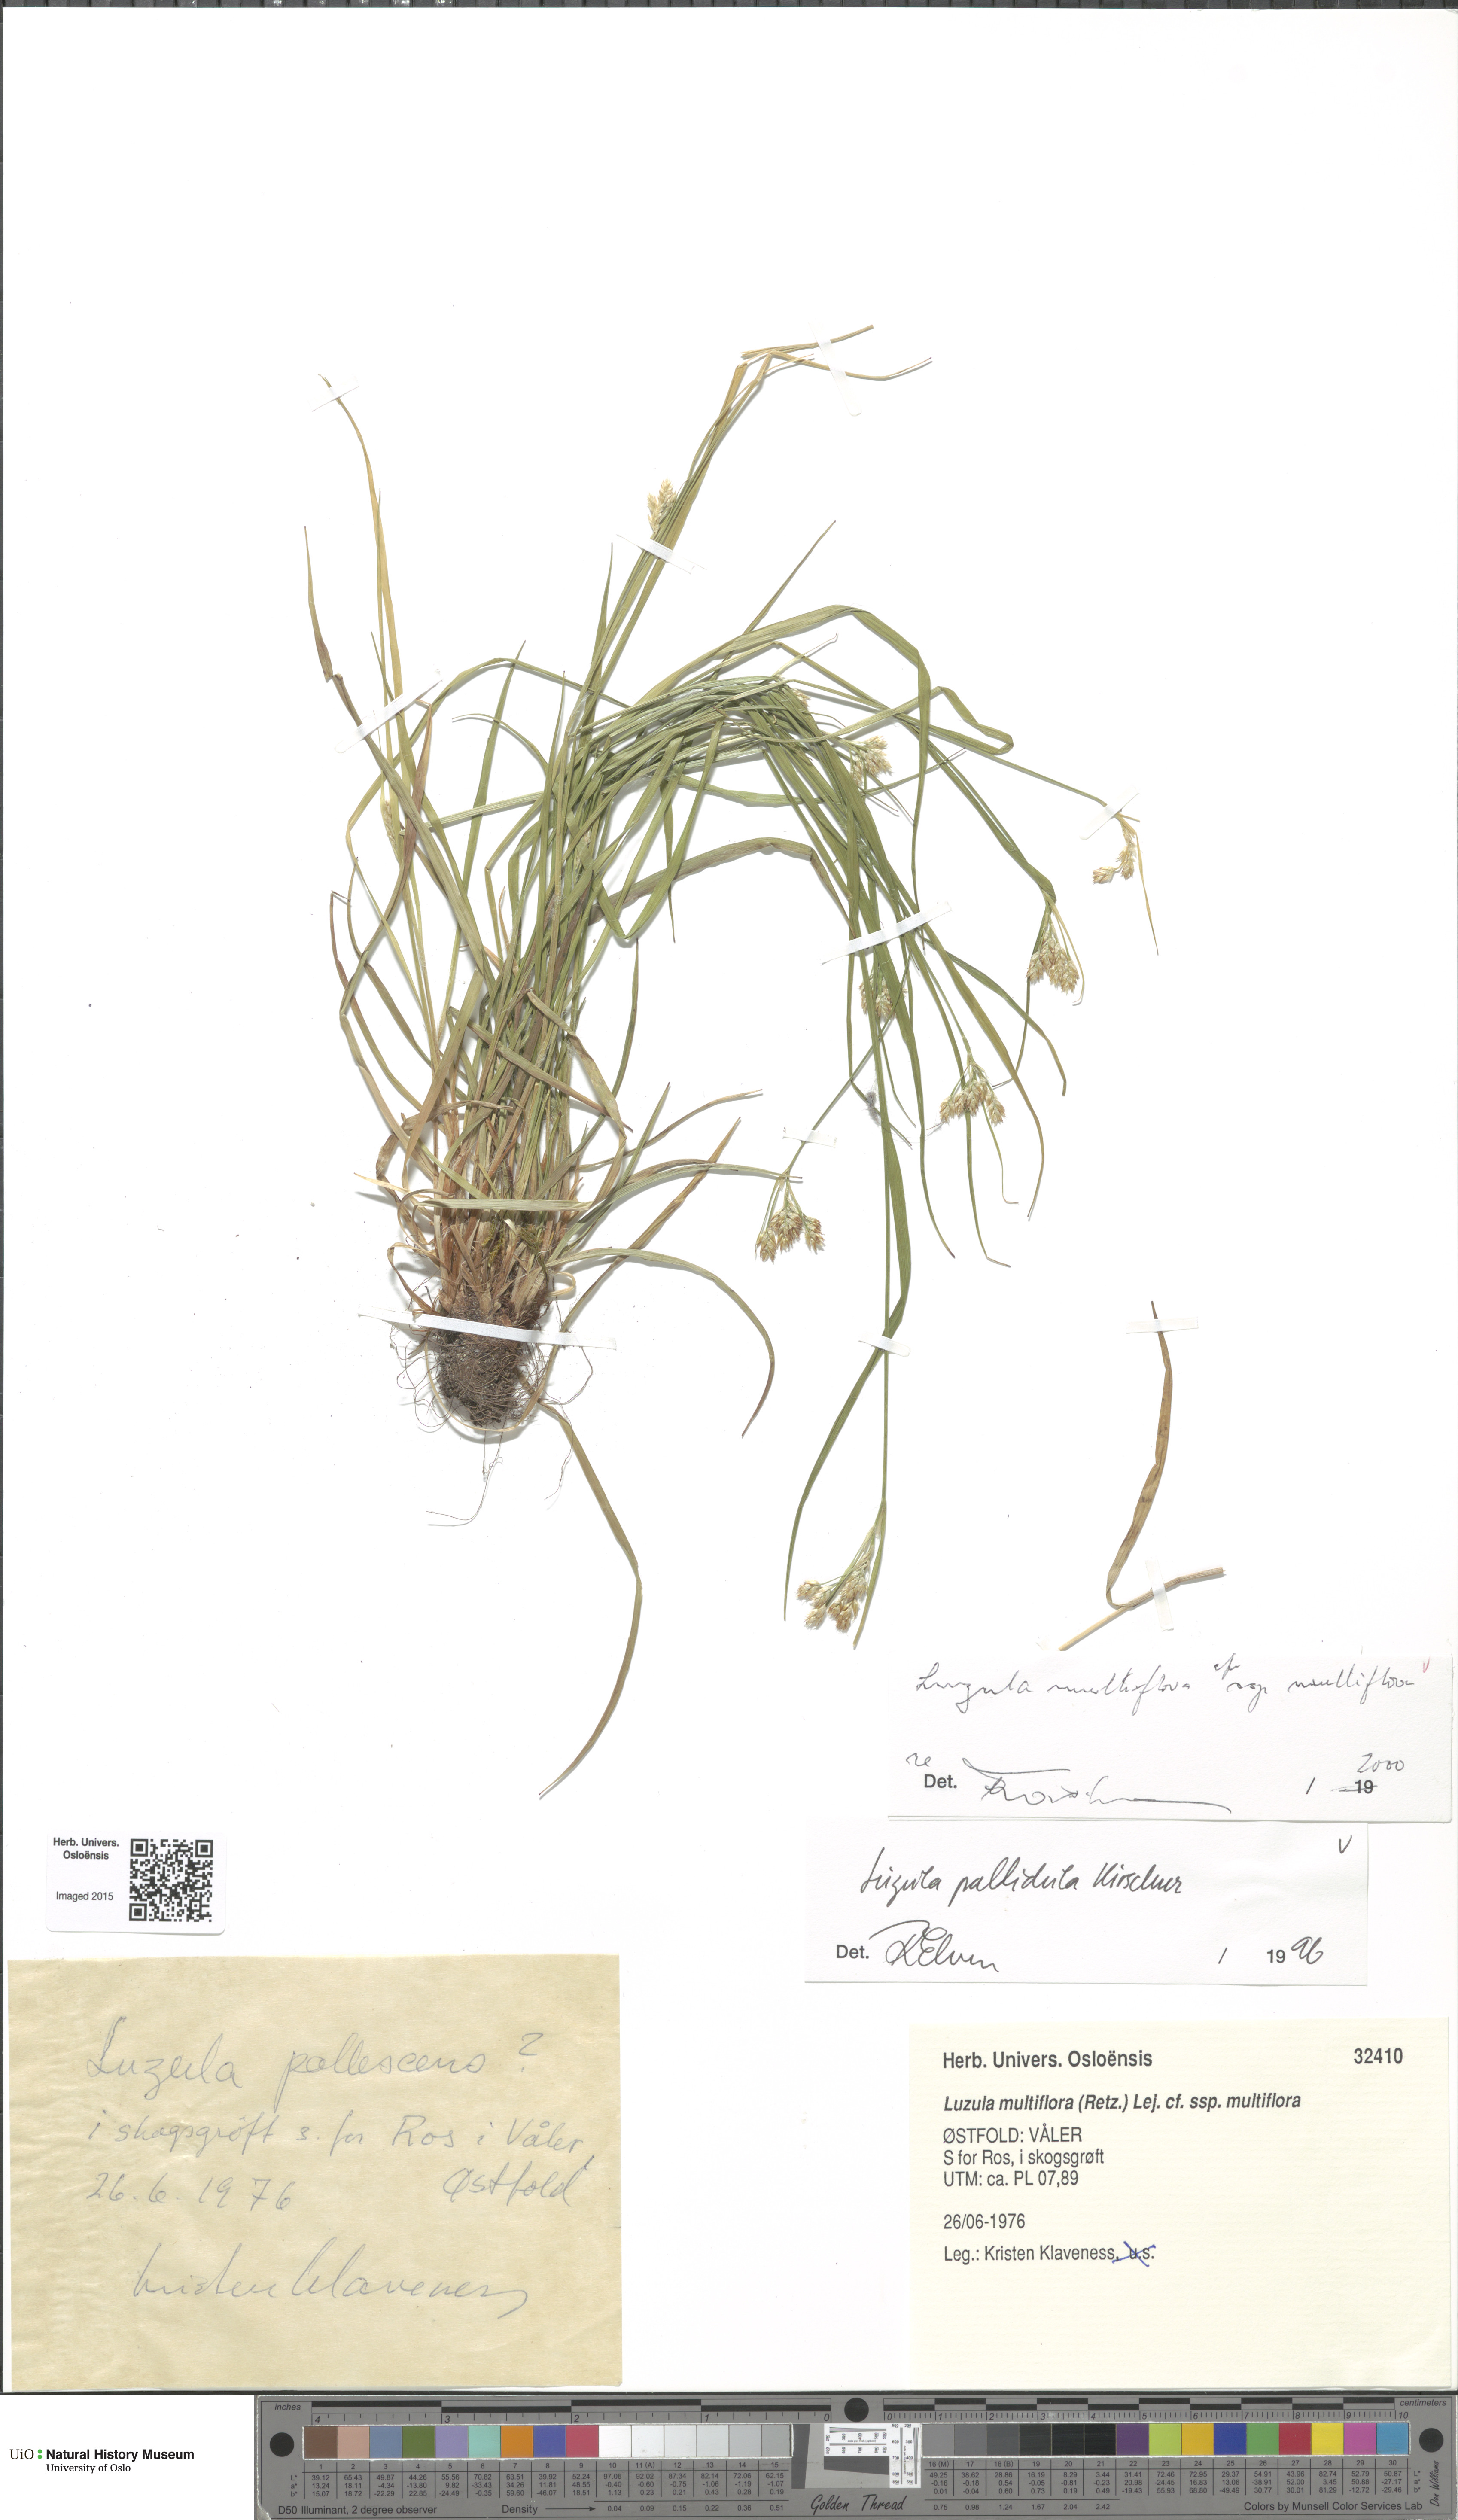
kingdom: Plantae
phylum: Tracheophyta
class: Liliopsida
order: Poales
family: Juncaceae
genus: Luzula
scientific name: Luzula multiflora
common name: Heath wood-rush
